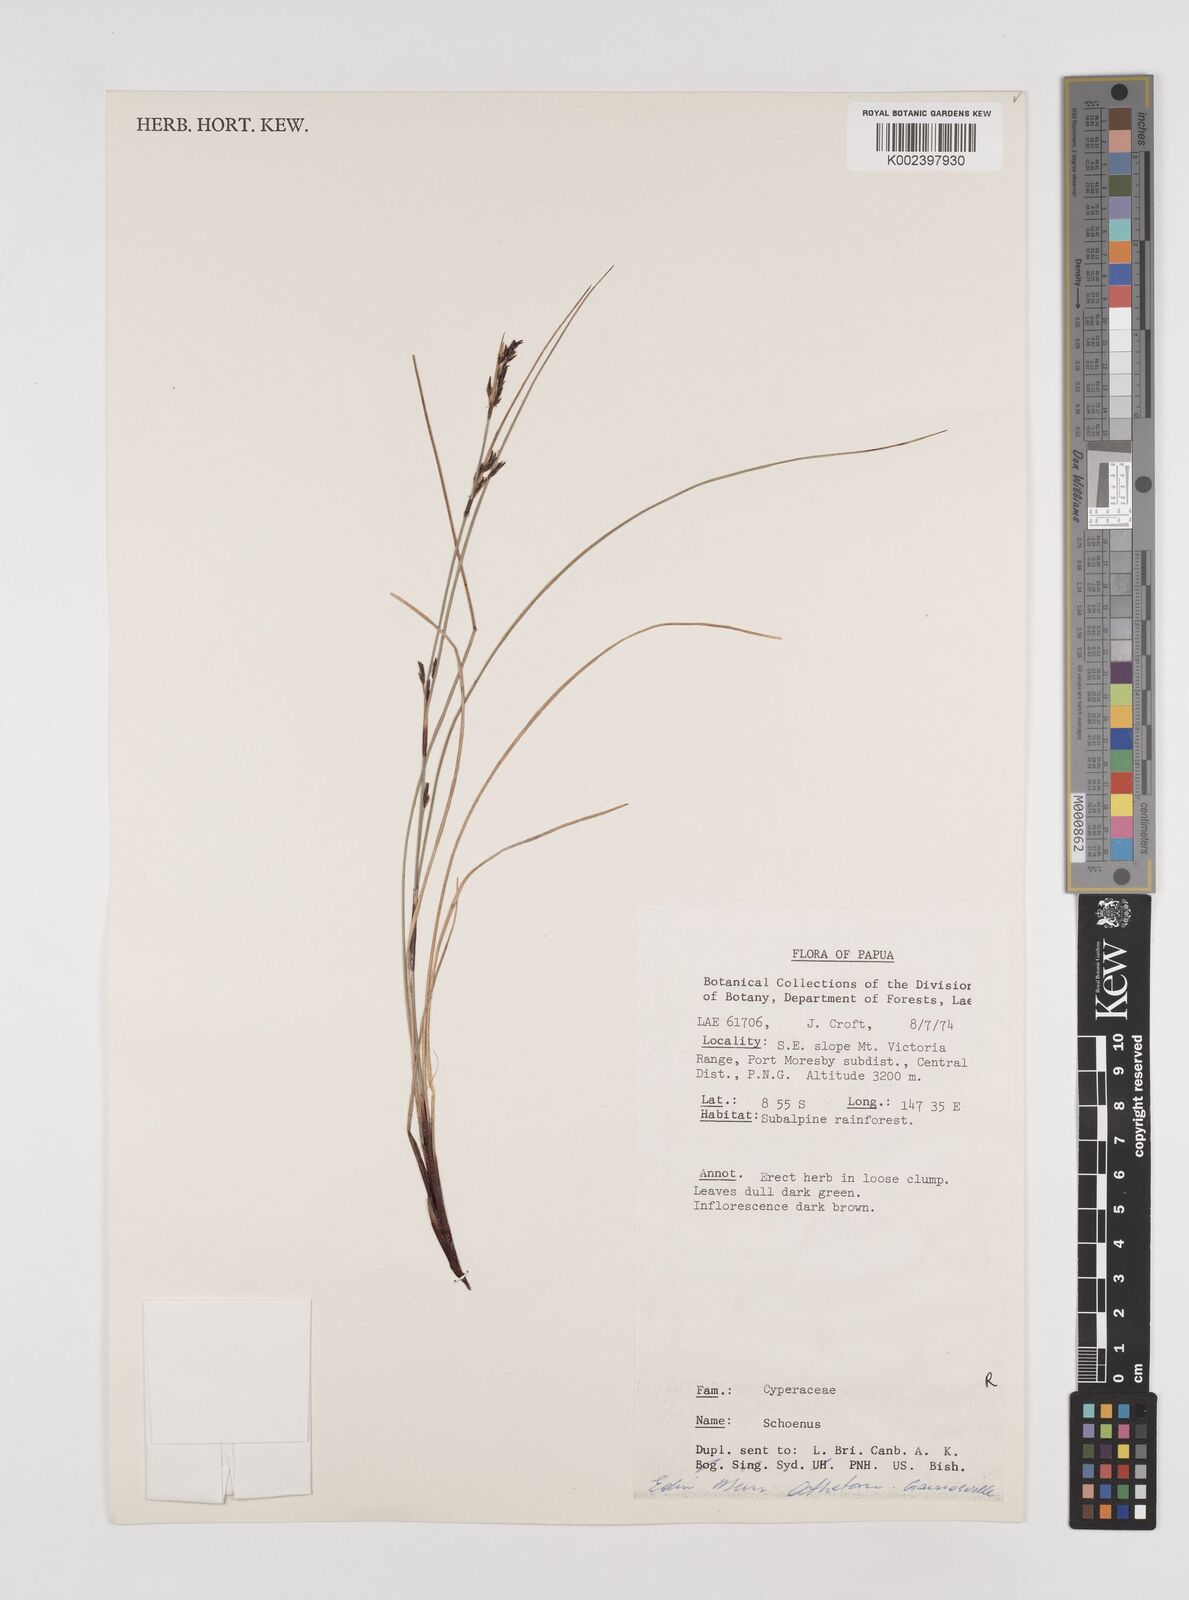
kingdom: Plantae
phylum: Tracheophyta
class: Liliopsida
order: Poales
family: Cyperaceae
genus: Schoenus
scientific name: Schoenus
